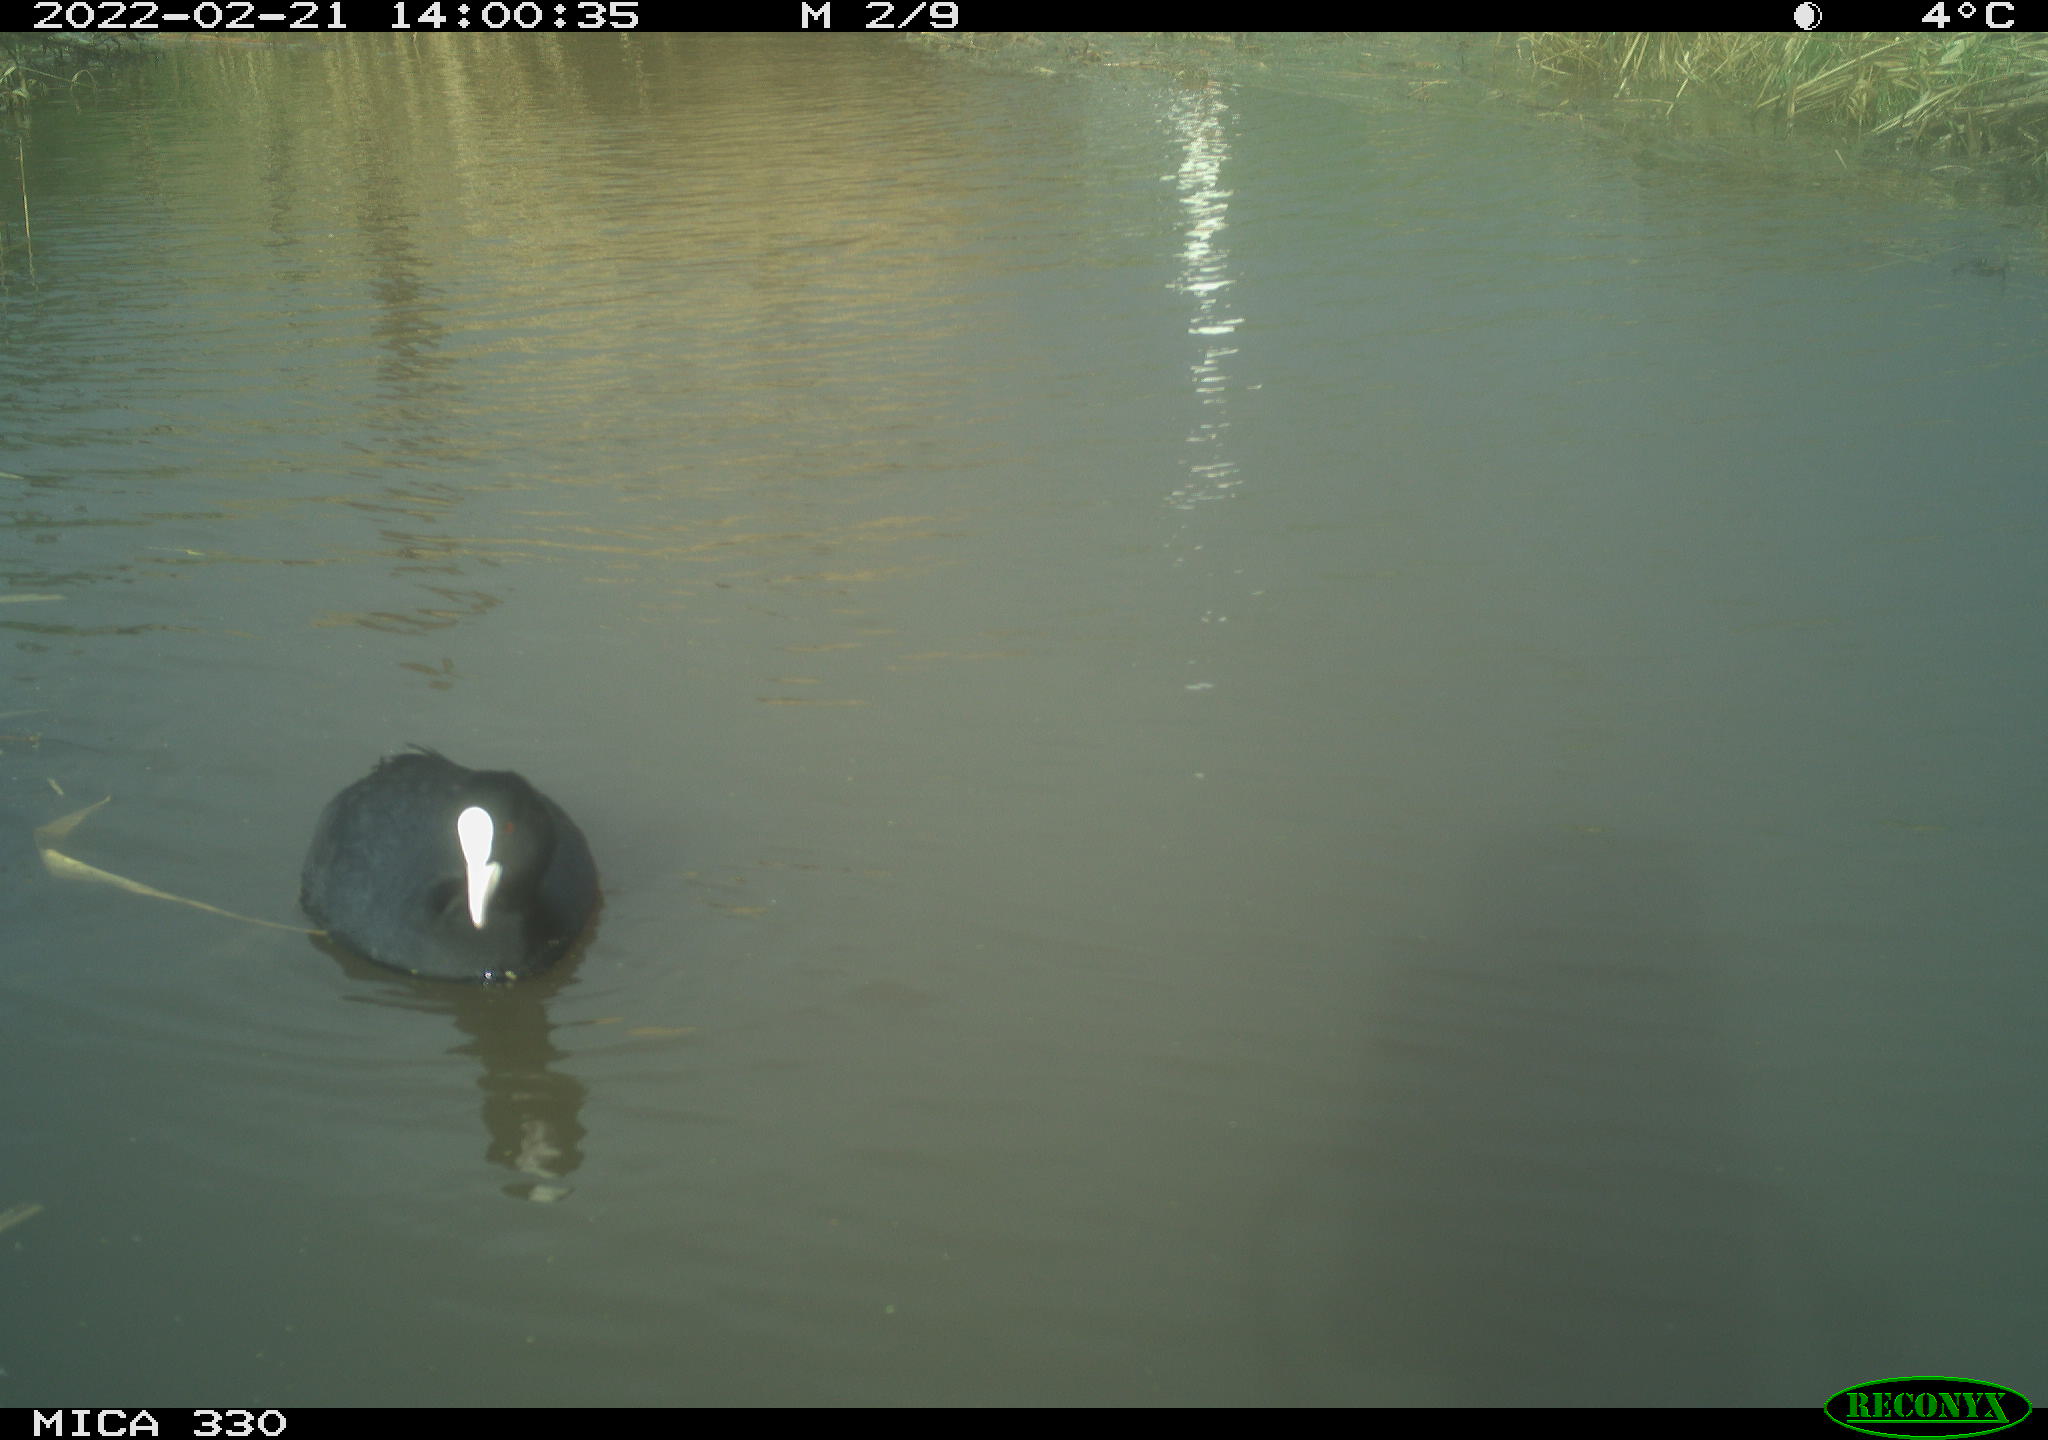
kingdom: Animalia
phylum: Chordata
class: Aves
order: Gruiformes
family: Rallidae
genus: Fulica
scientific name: Fulica atra
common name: Eurasian coot
